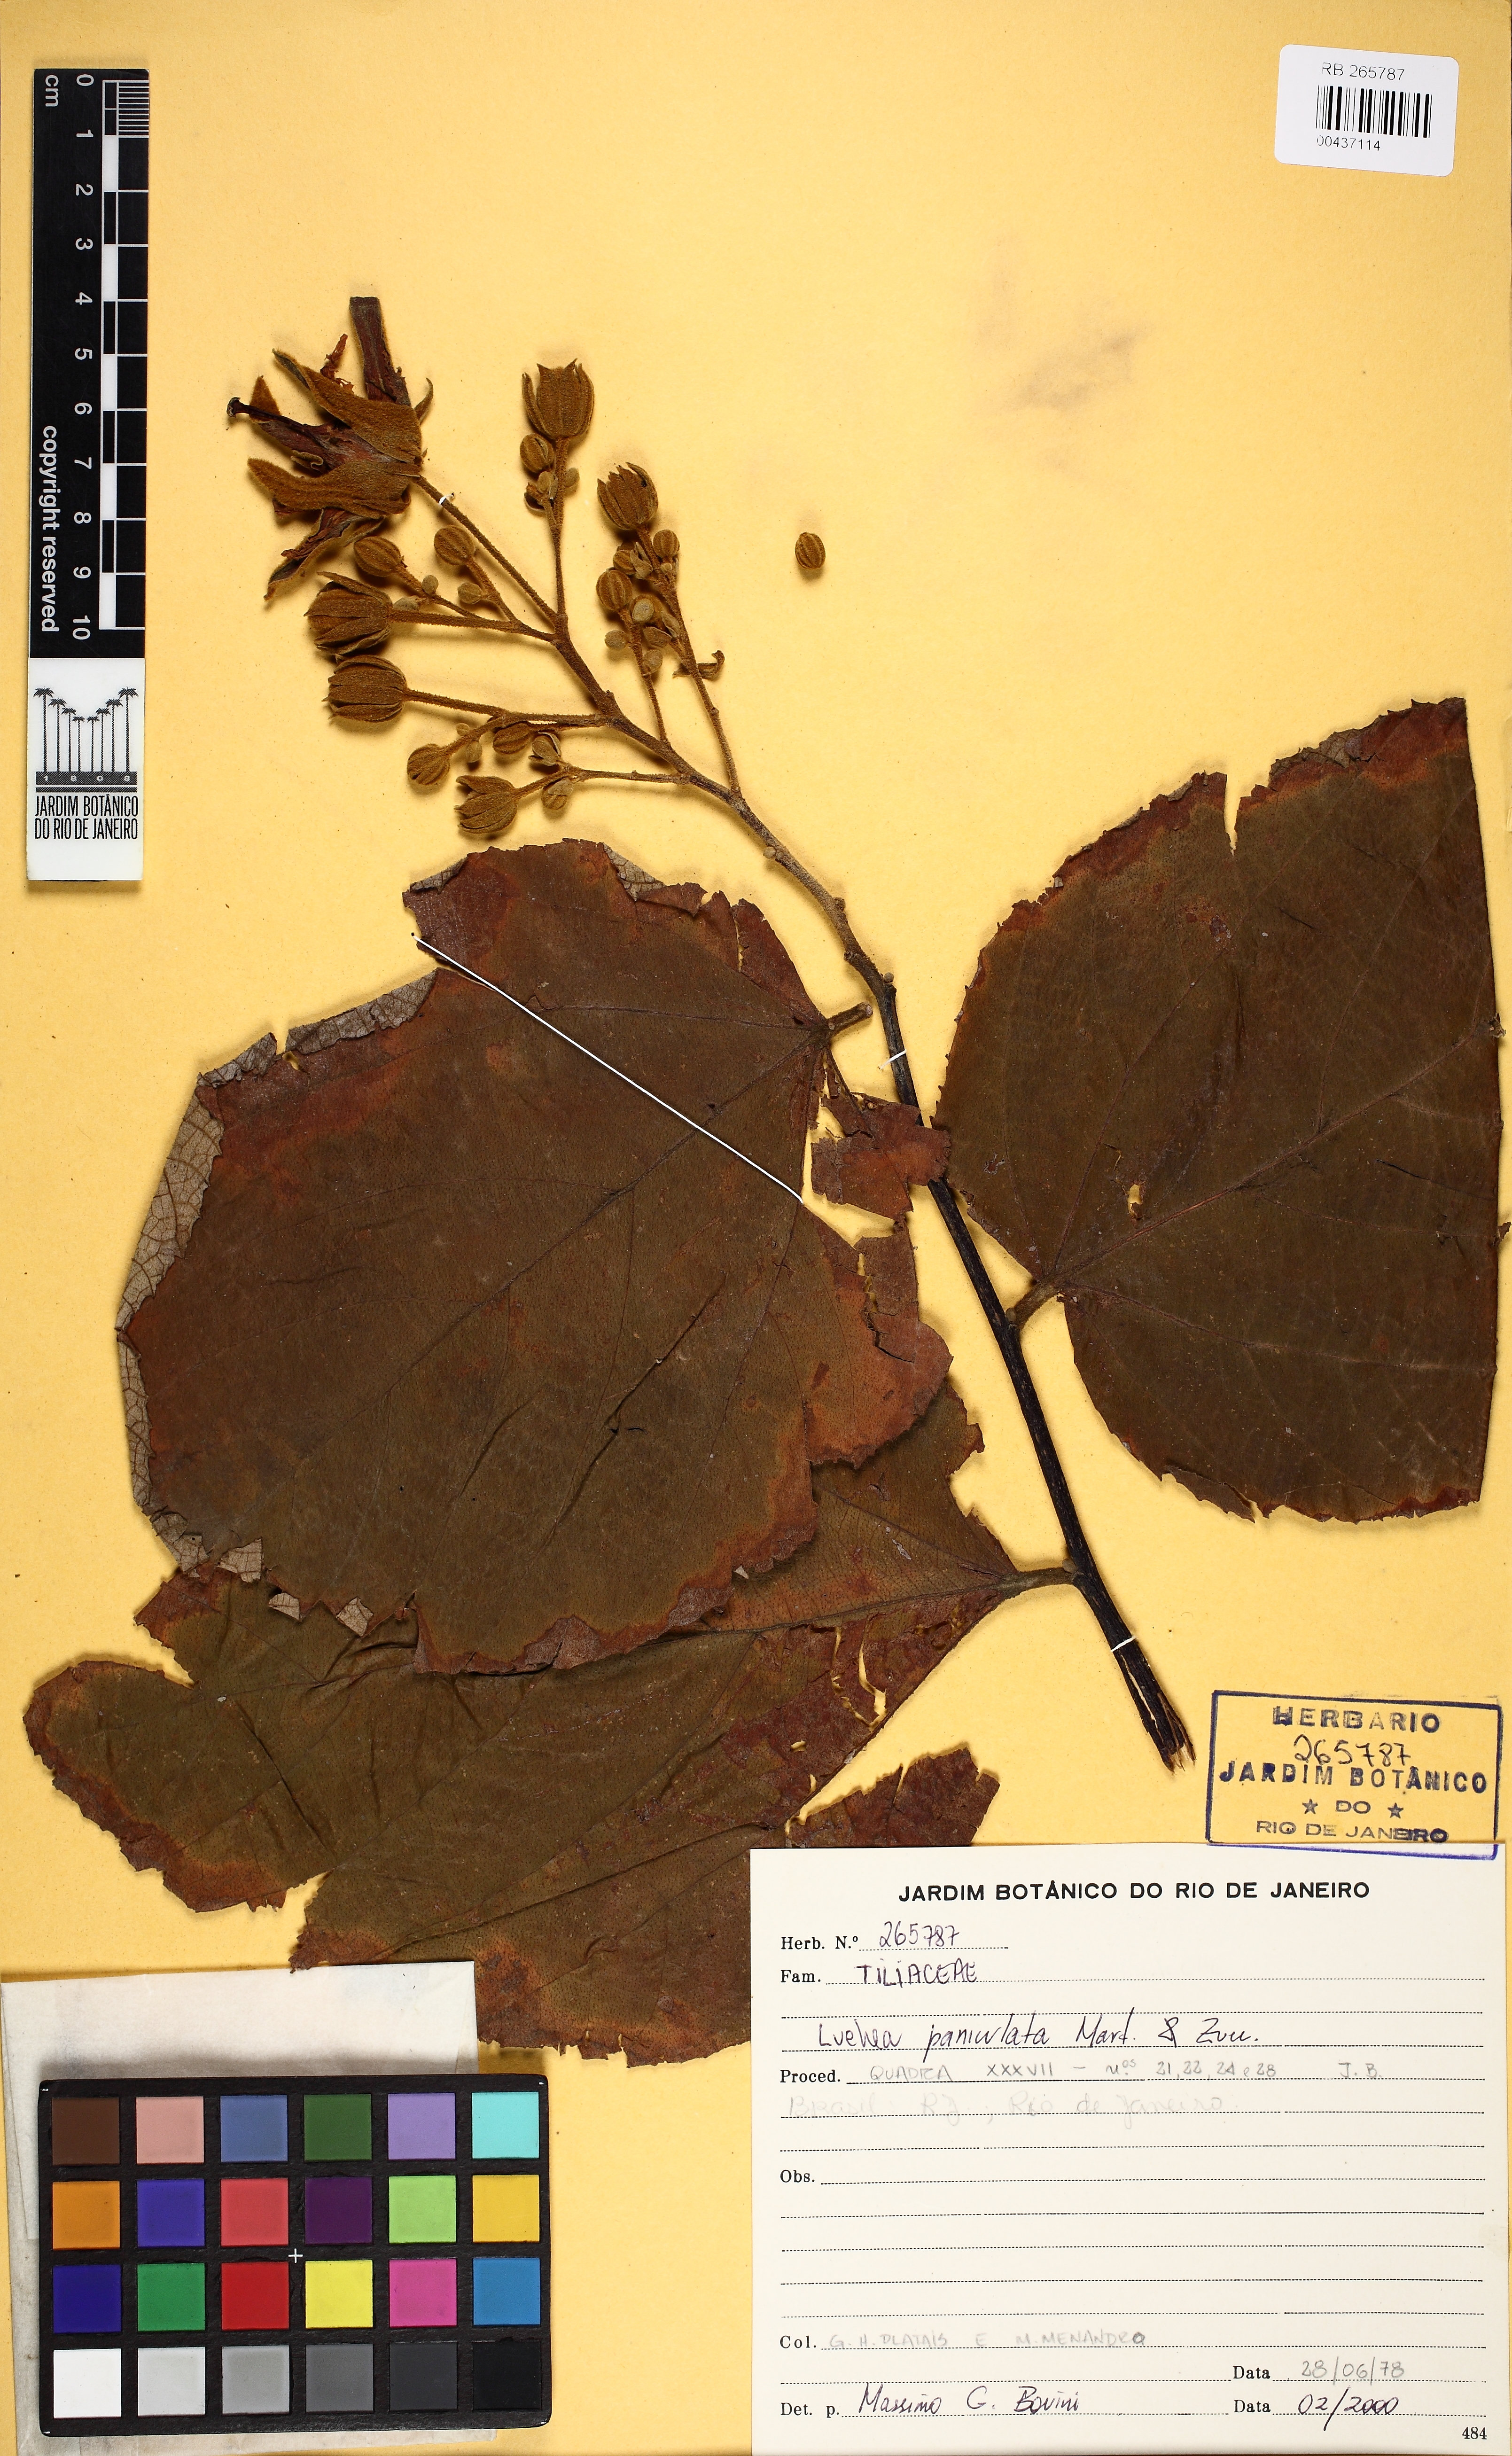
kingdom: Plantae
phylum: Tracheophyta
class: Magnoliopsida
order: Malvales
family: Malvaceae
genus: Luehea
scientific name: Luehea rufescens
